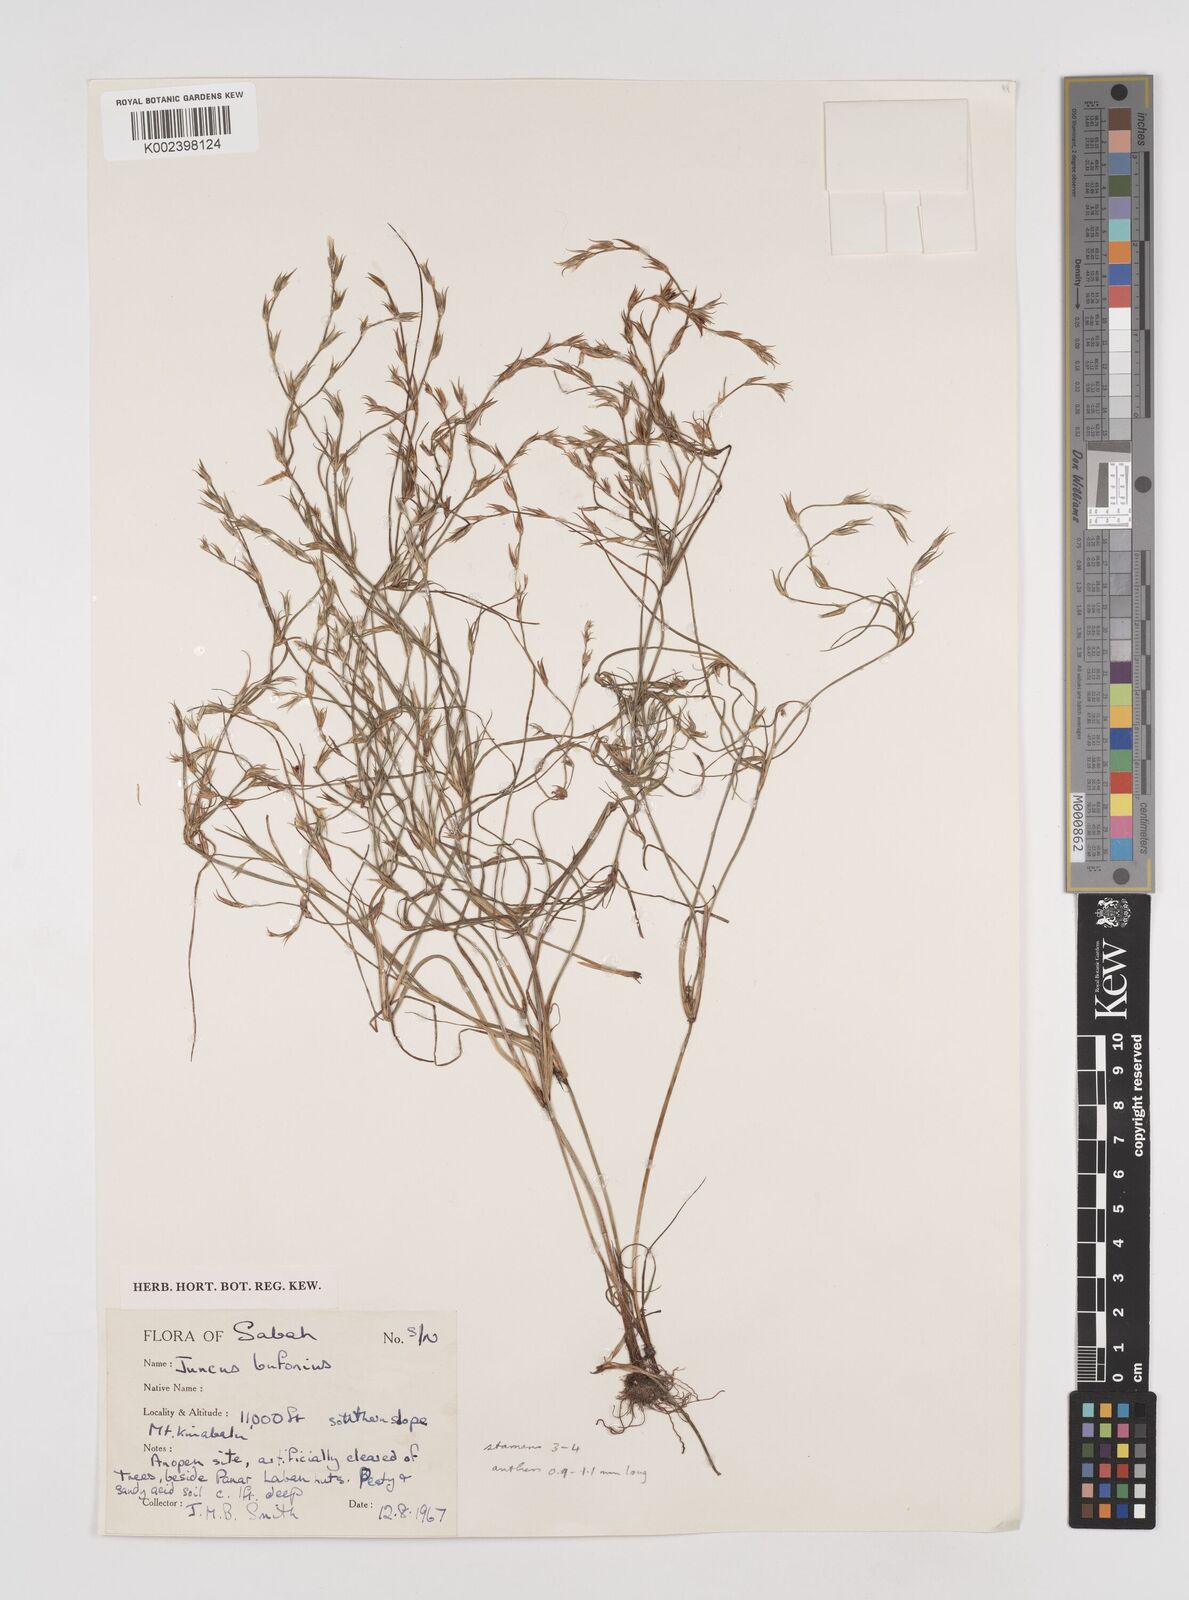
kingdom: Plantae
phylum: Tracheophyta
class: Liliopsida
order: Poales
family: Juncaceae
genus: Juncus
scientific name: Juncus bufonius
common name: Toad rush
